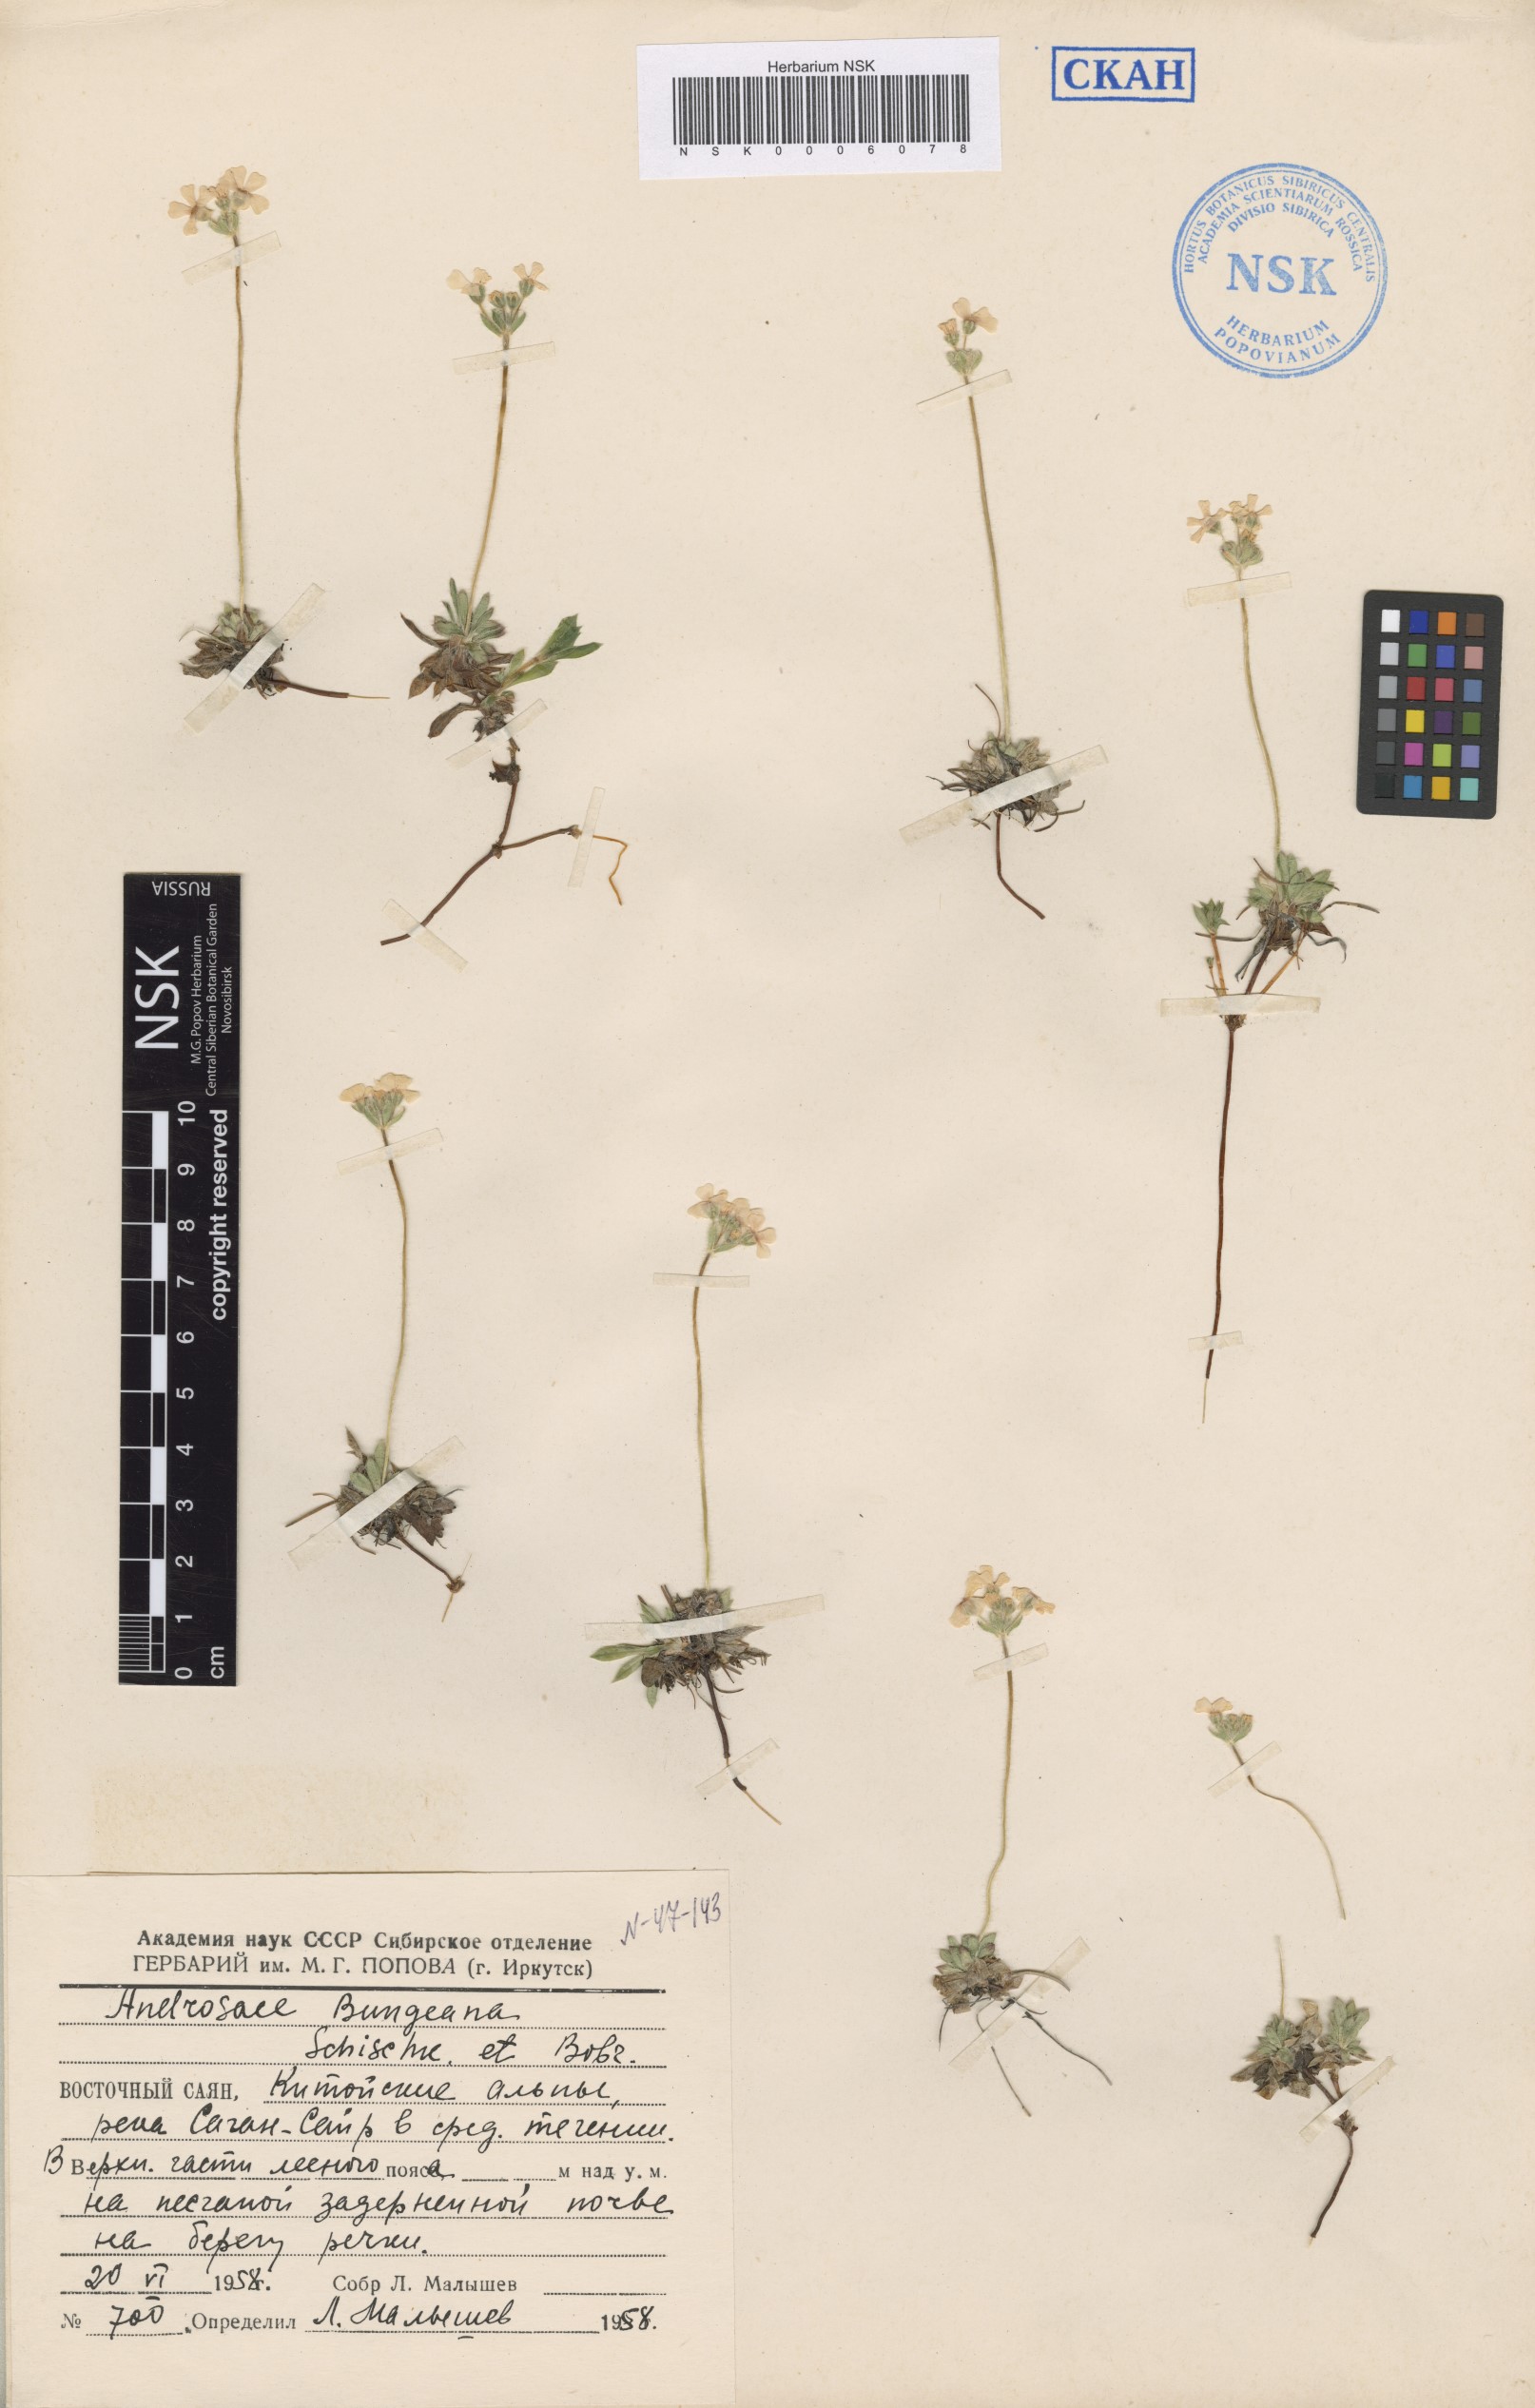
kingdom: Plantae
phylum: Tracheophyta
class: Magnoliopsida
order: Ericales
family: Primulaceae
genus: Androsace
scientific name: Androsace bungeana
